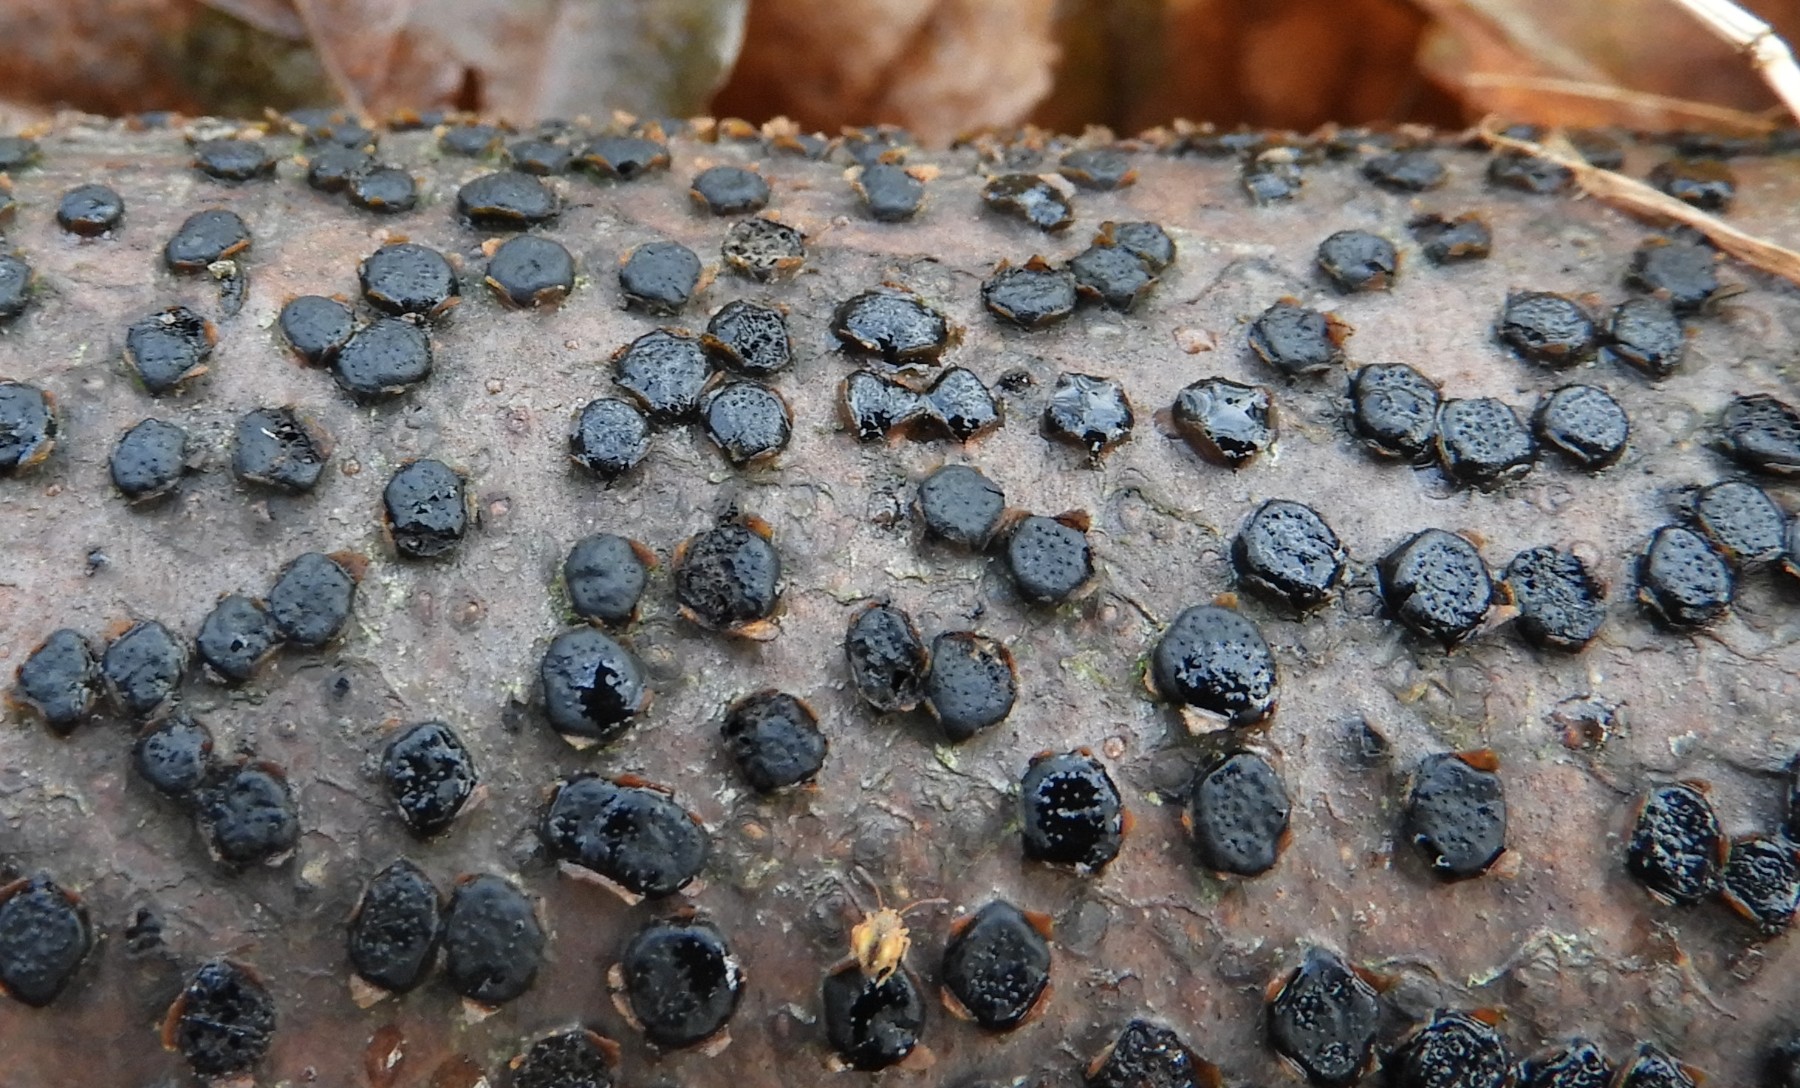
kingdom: Fungi
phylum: Ascomycota
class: Sordariomycetes
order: Xylariales
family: Diatrypaceae
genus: Diatrype
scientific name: Diatrype disciformis
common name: kant-kulskorpe
